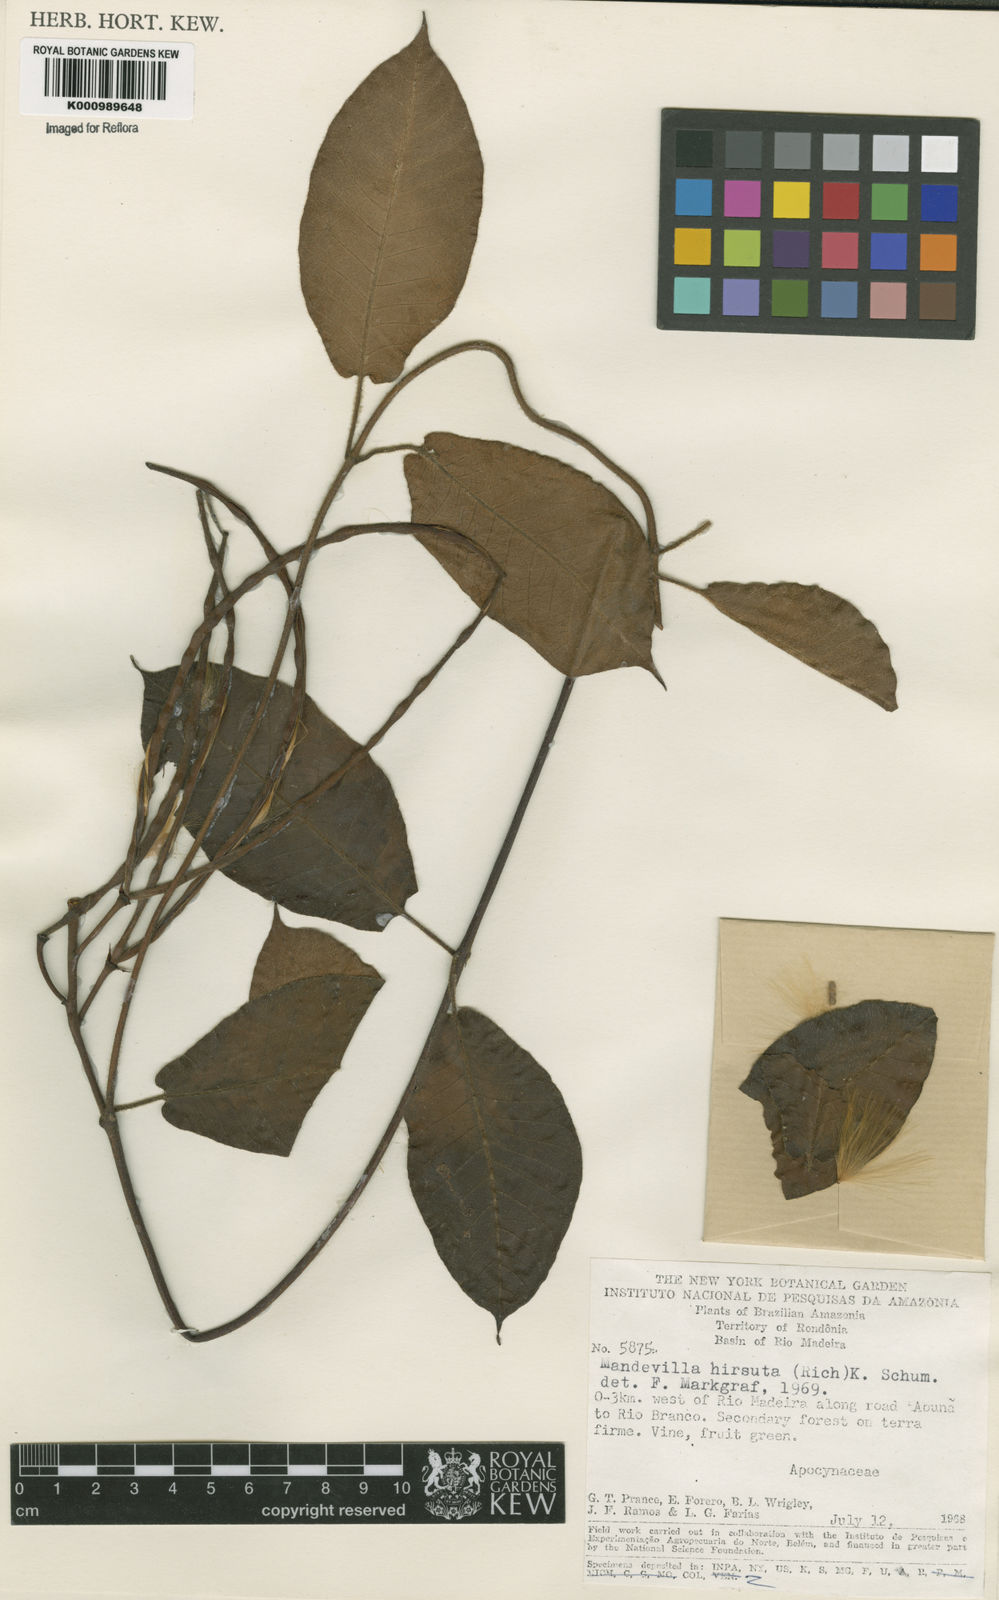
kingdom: Plantae
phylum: Tracheophyta
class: Magnoliopsida
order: Gentianales
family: Apocynaceae
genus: Mandevilla
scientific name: Mandevilla hirsuta
